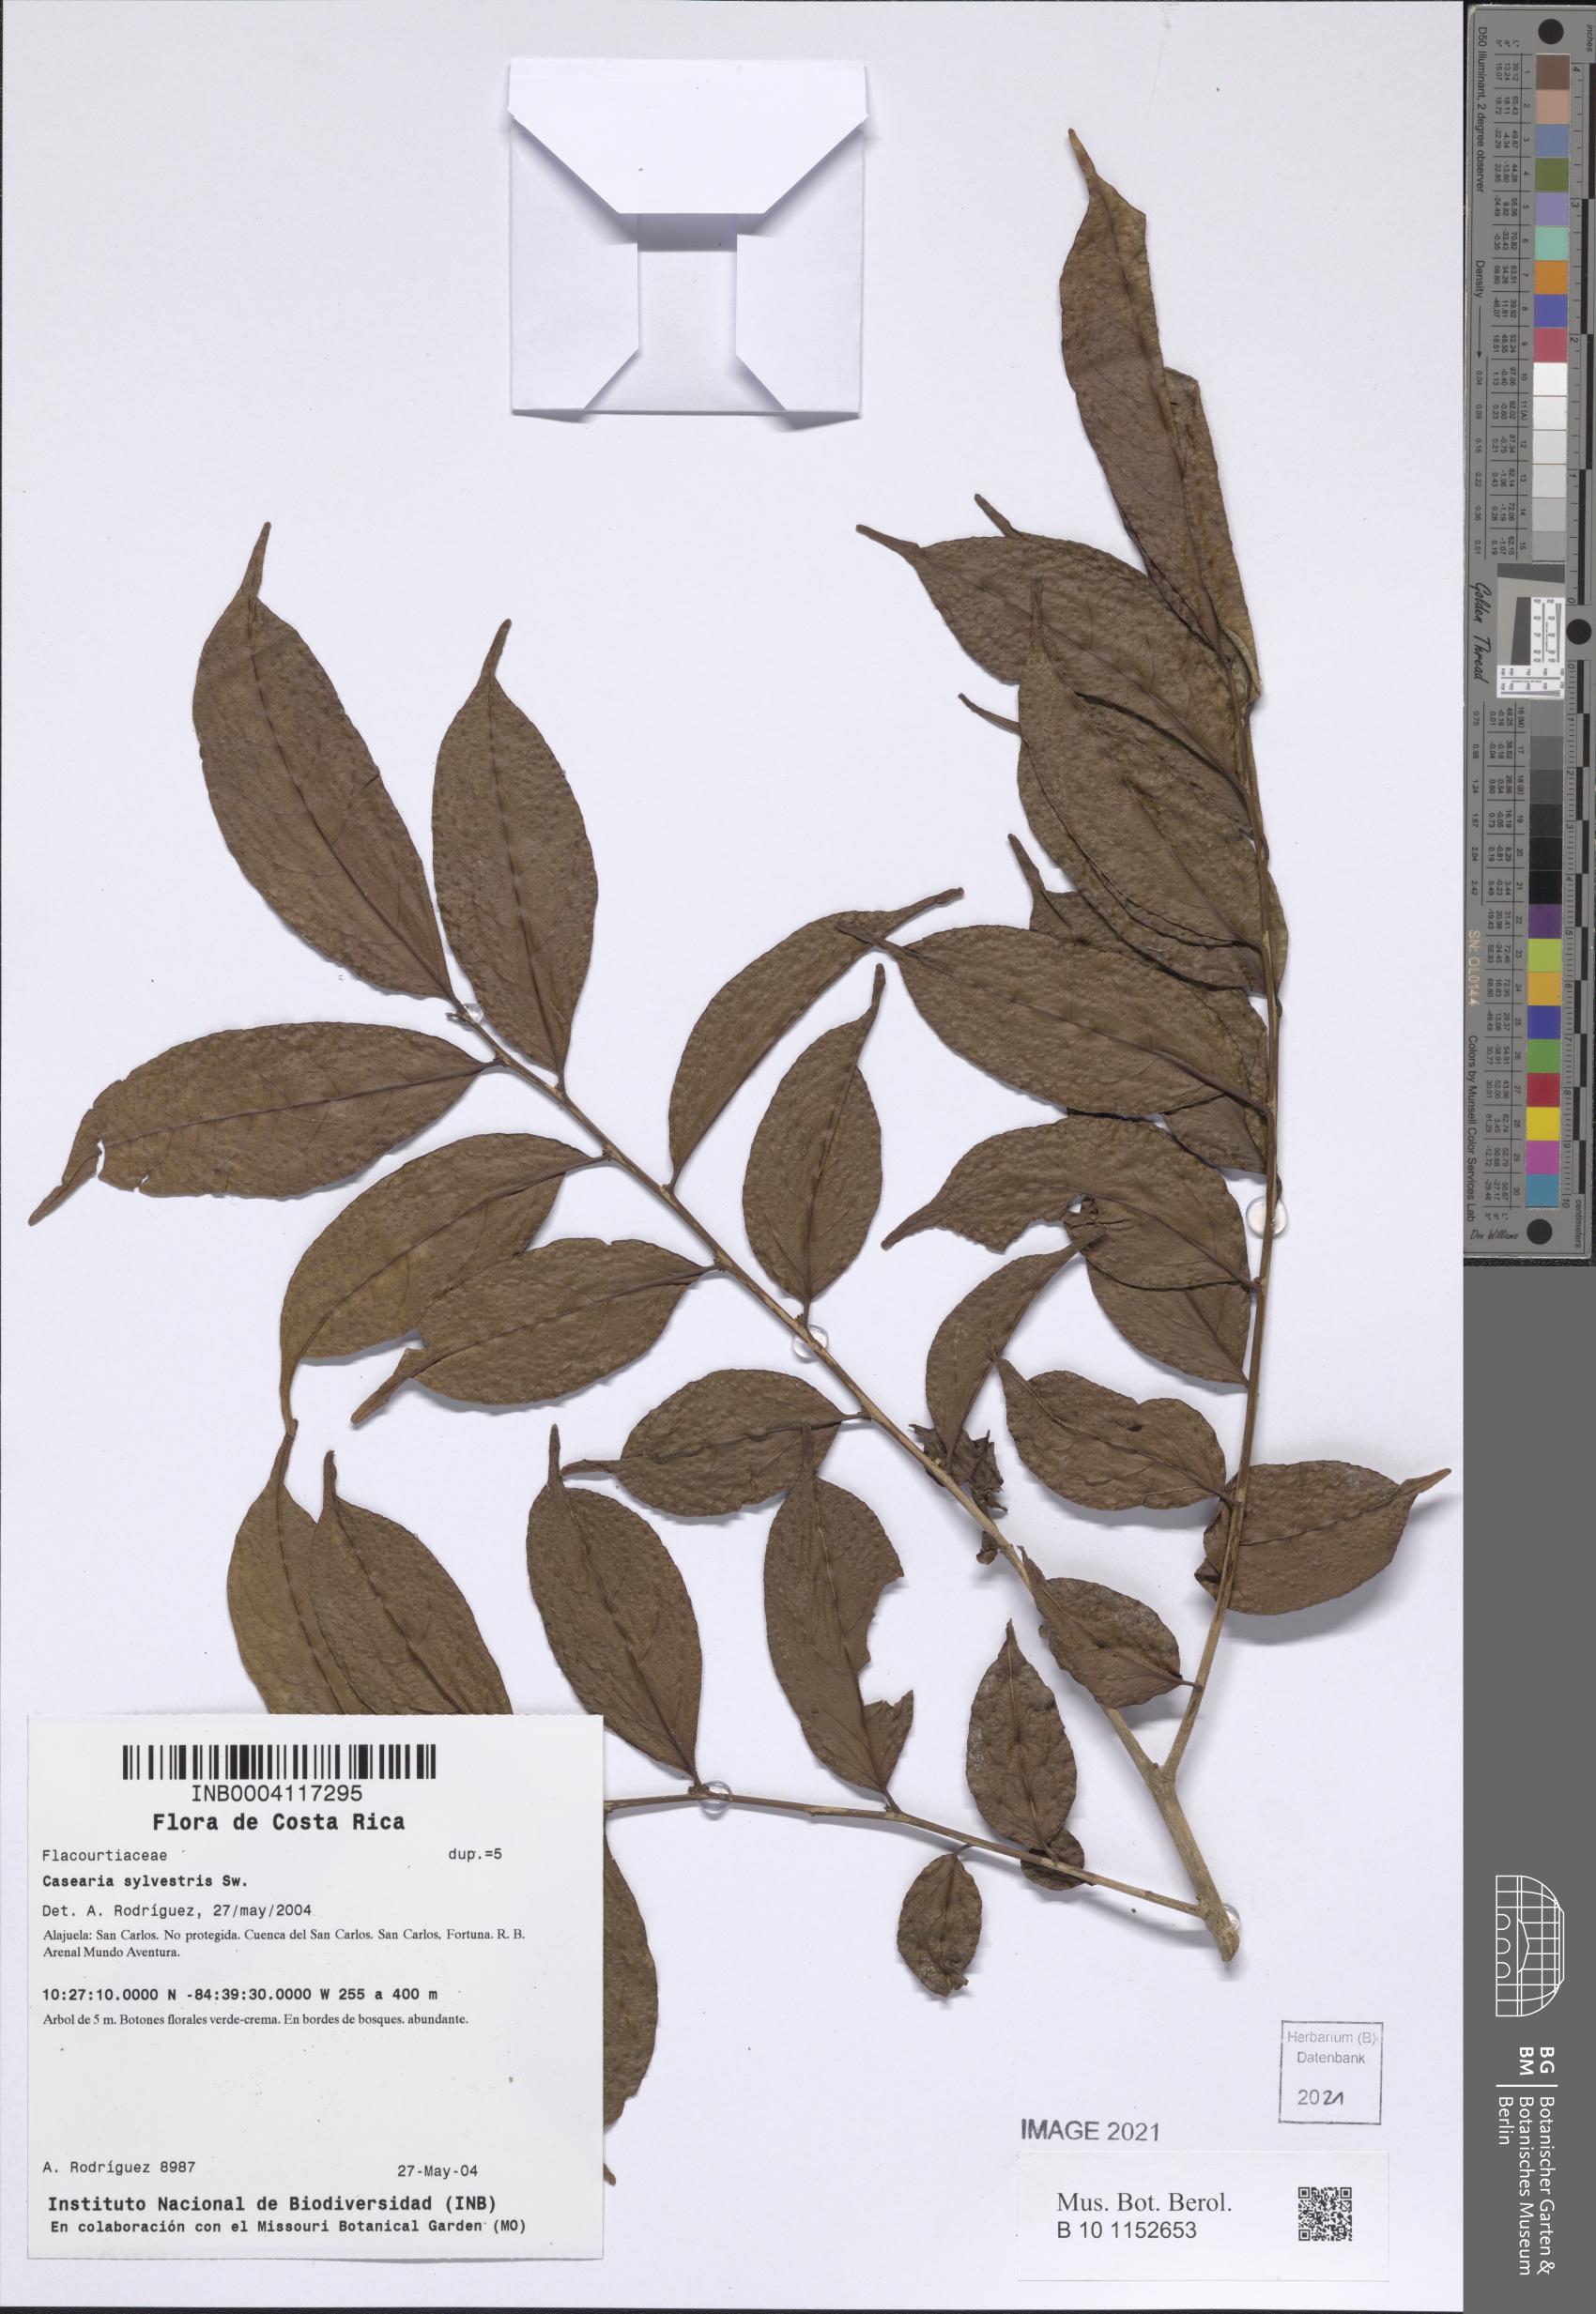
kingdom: Plantae
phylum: Tracheophyta
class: Magnoliopsida
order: Malpighiales
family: Salicaceae
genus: Casearia
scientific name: Casearia sylvestris
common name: Wild sage
